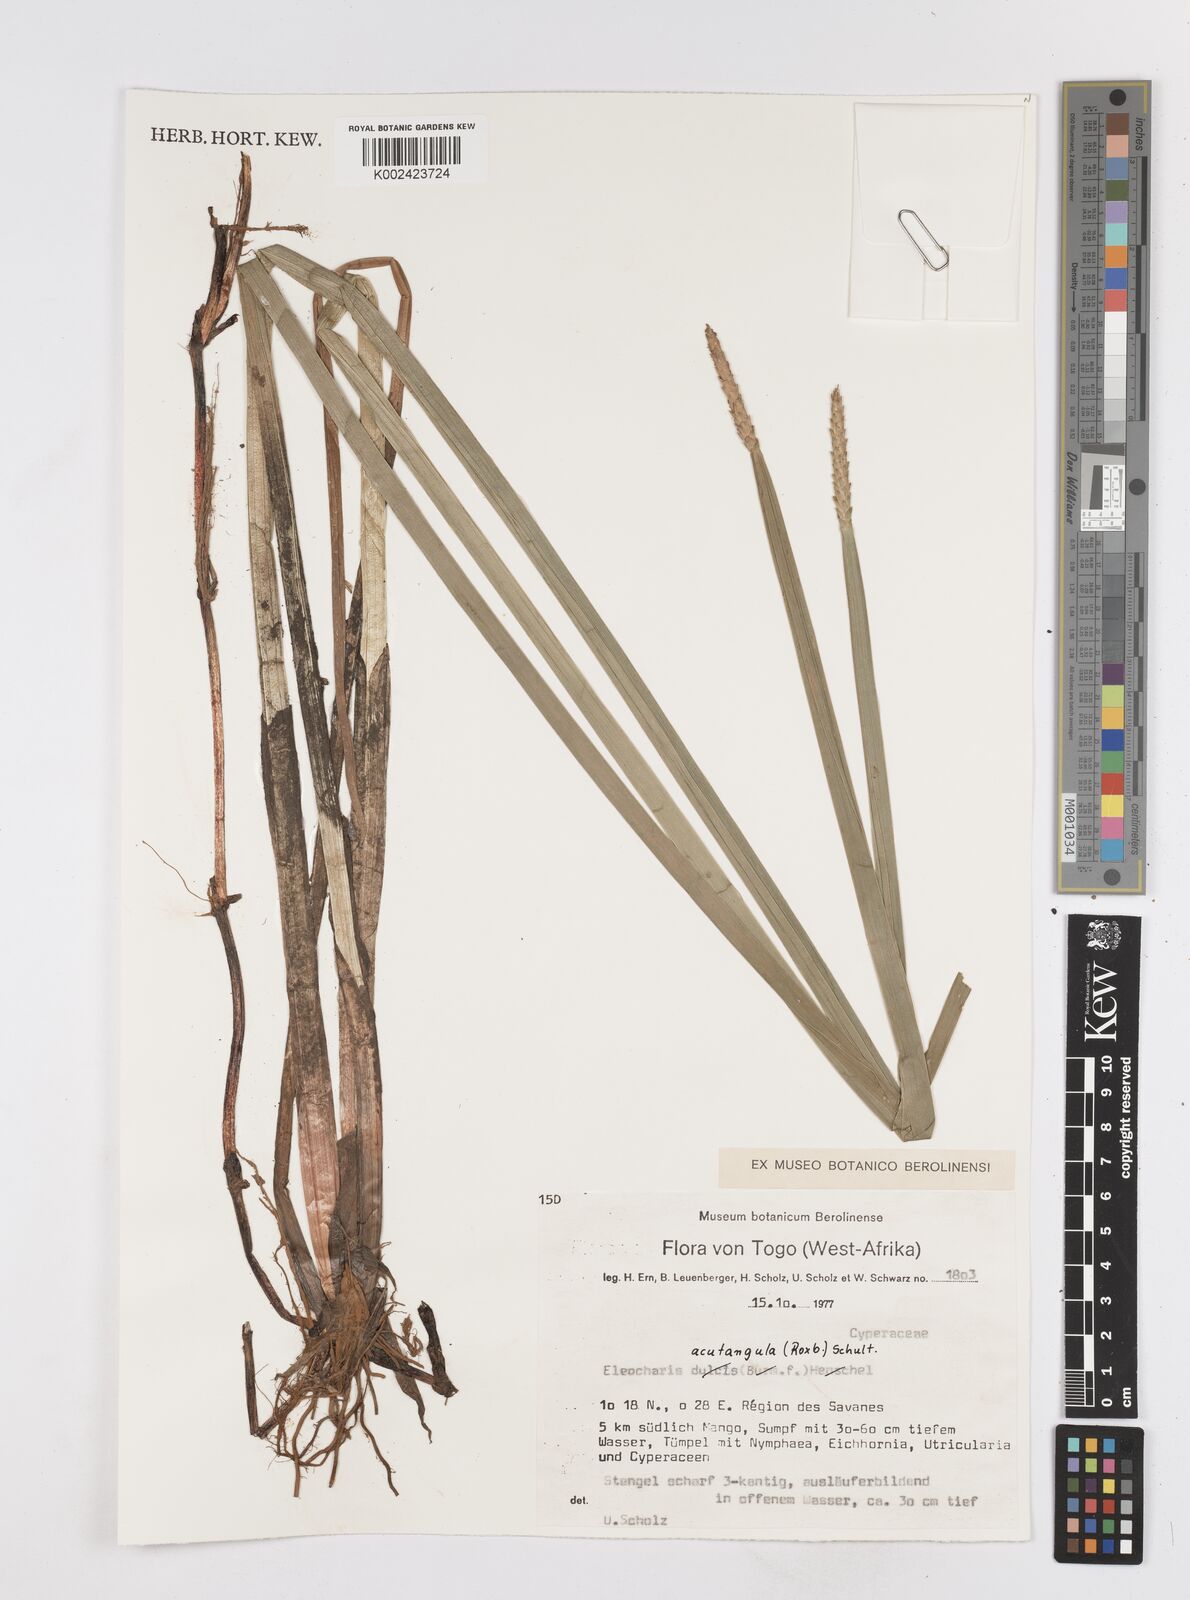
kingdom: Plantae
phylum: Tracheophyta
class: Liliopsida
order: Poales
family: Cyperaceae
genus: Eleocharis
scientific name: Eleocharis acutangula
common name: Acute spikerush
